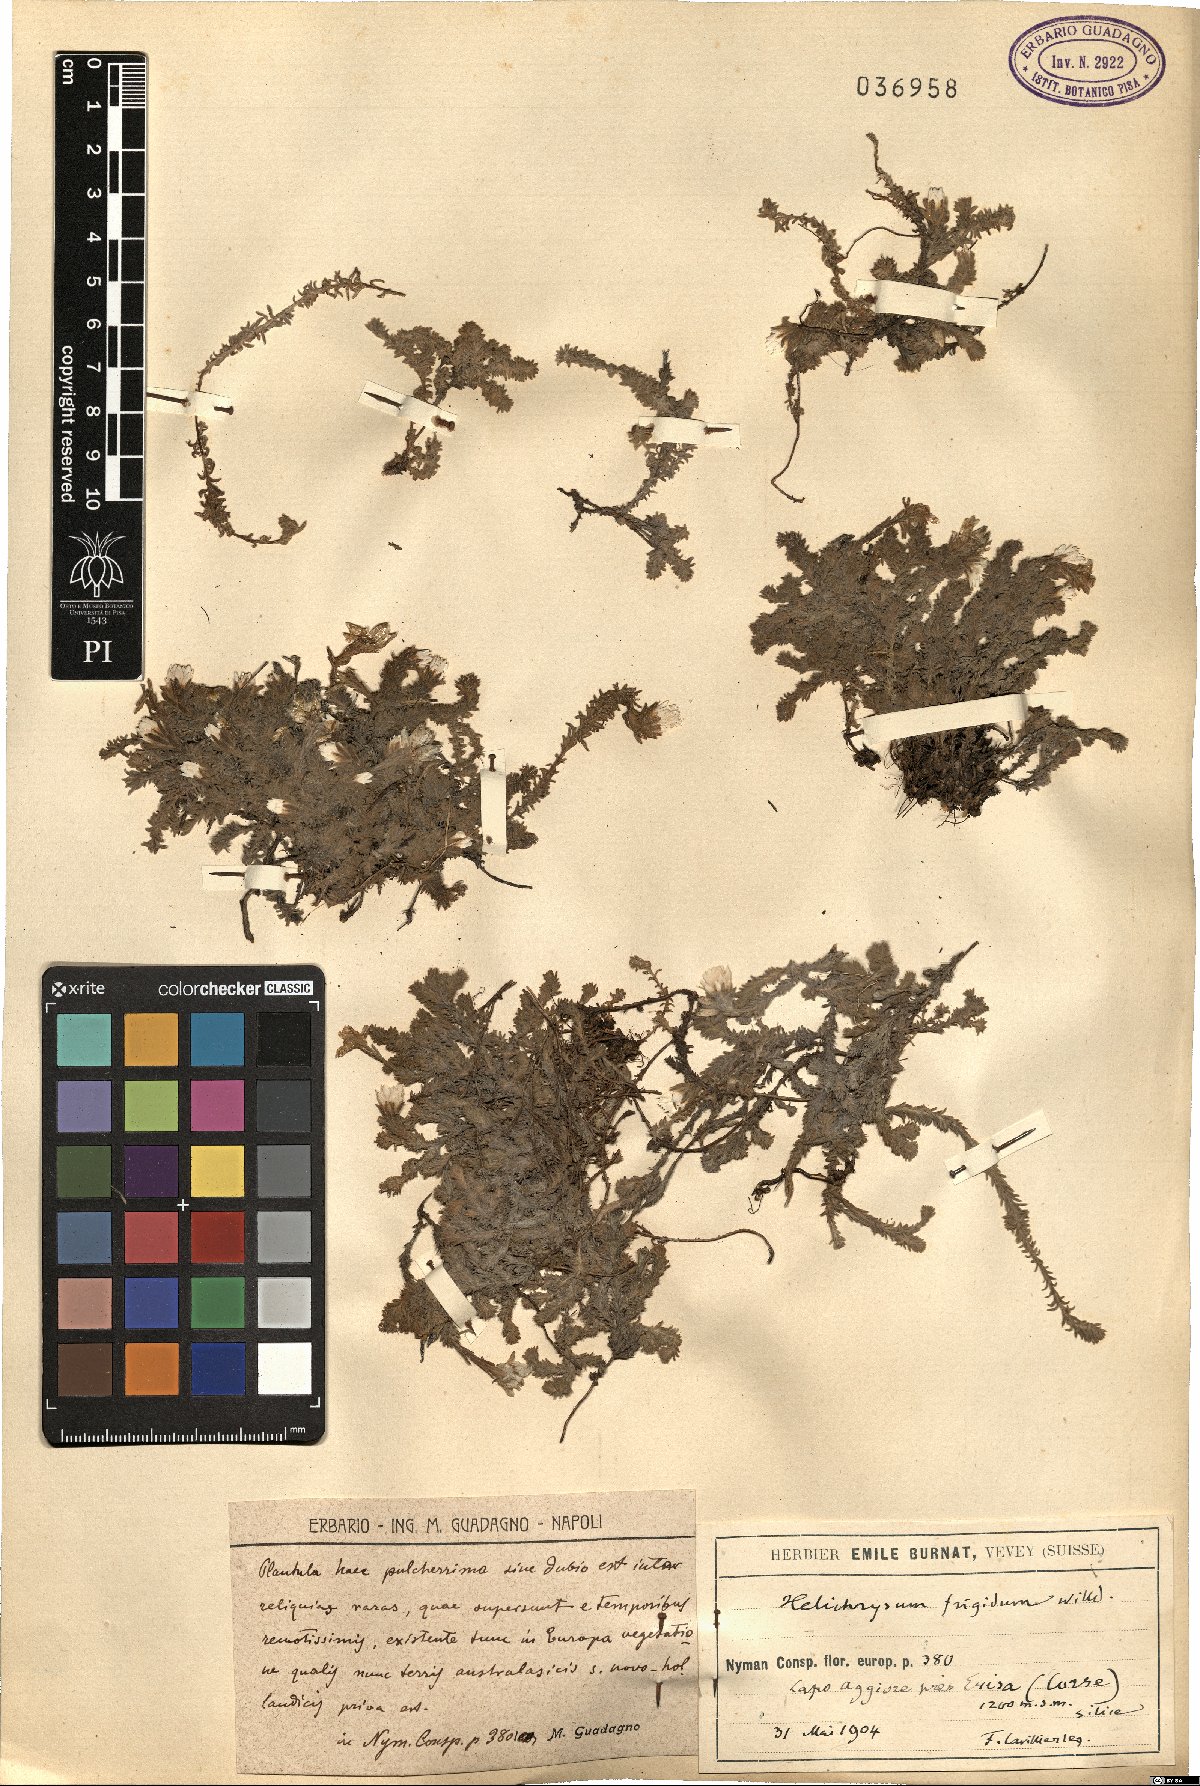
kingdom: Plantae
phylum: Tracheophyta
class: Magnoliopsida
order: Asterales
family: Asteraceae
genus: Castroviejoa
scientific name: Castroviejoa frigida
